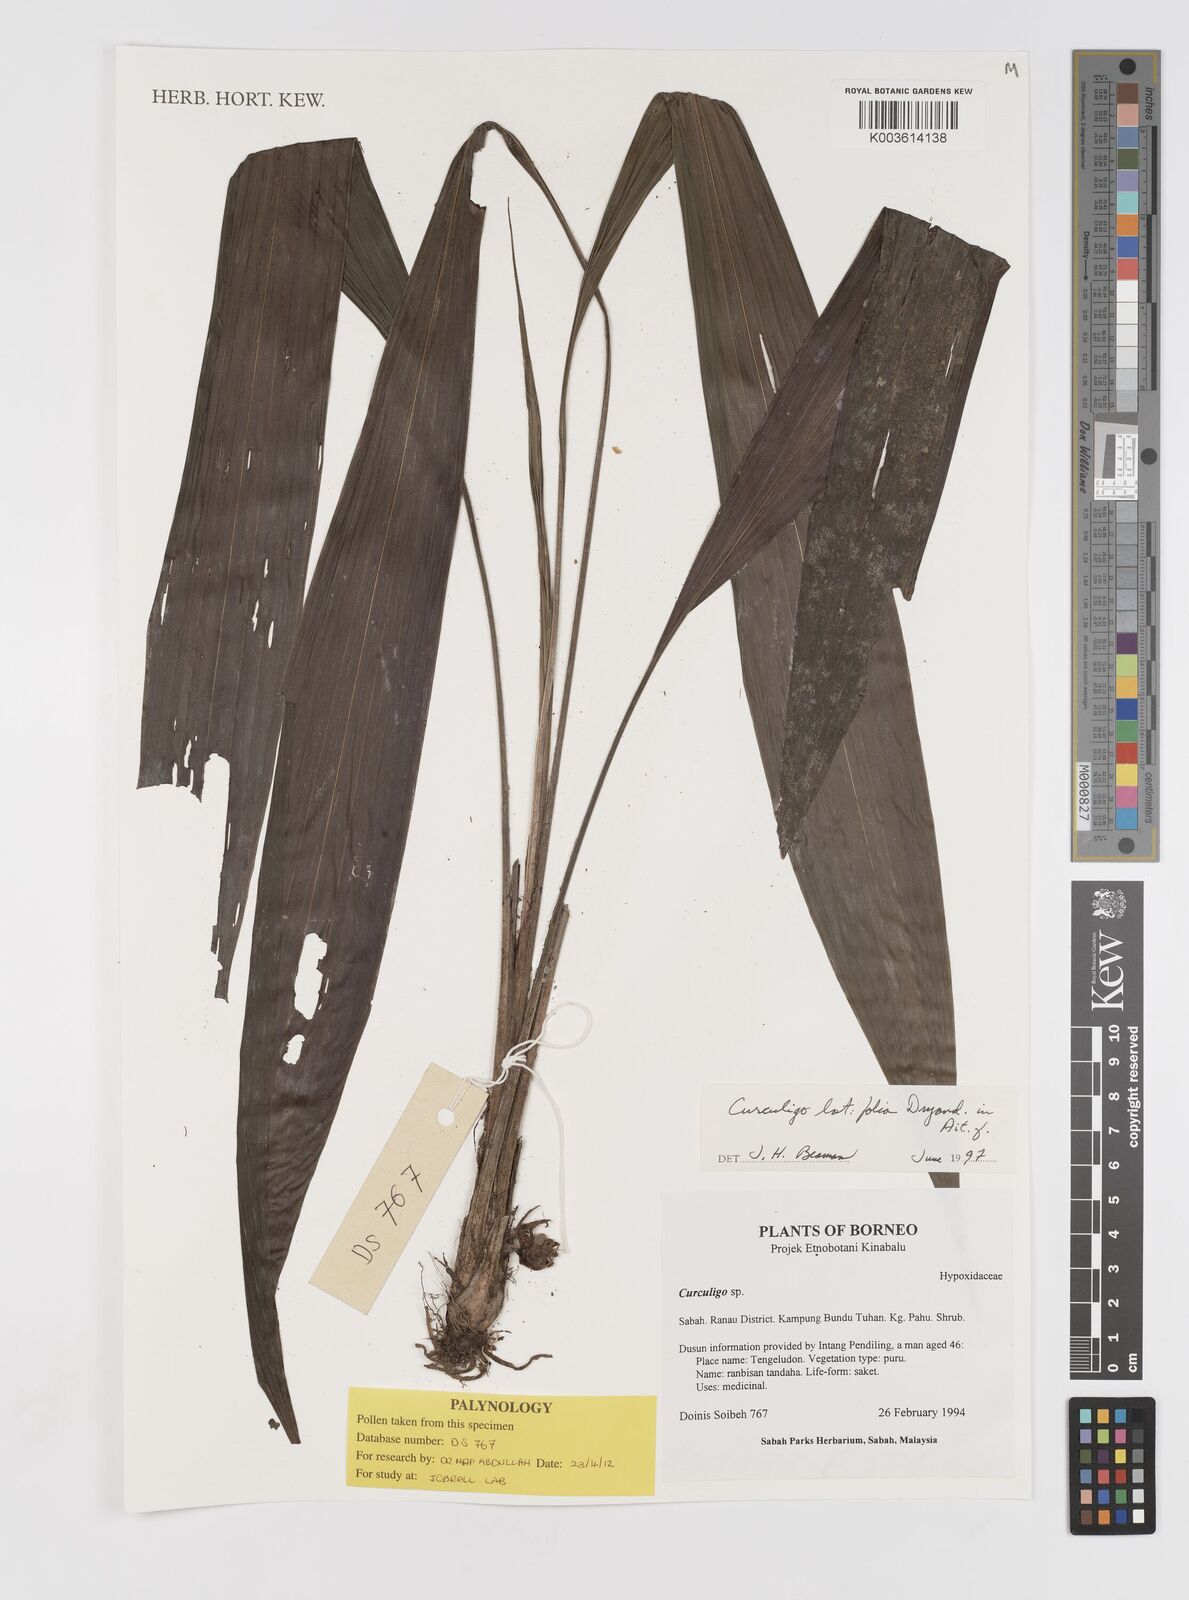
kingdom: Plantae
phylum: Tracheophyta
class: Liliopsida
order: Asparagales
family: Hypoxidaceae
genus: Curculigo
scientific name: Curculigo latifolia
